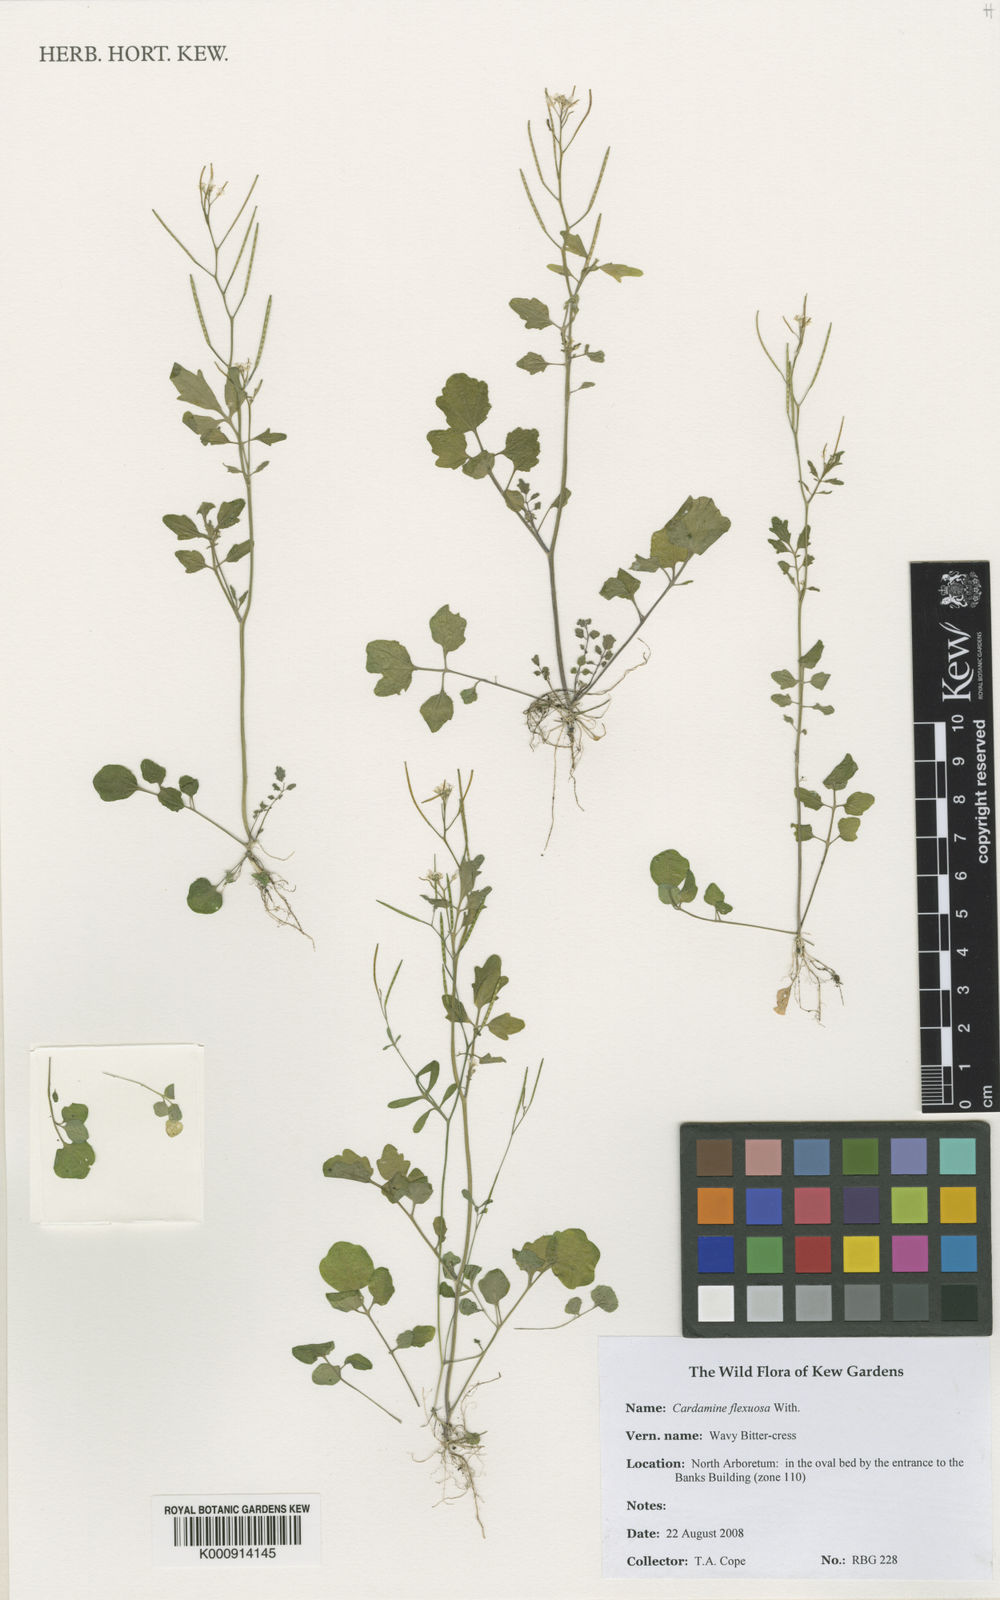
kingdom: Plantae
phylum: Tracheophyta
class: Magnoliopsida
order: Brassicales
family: Brassicaceae
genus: Cardamine
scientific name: Cardamine flexuosa
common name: Woodland bittercress
